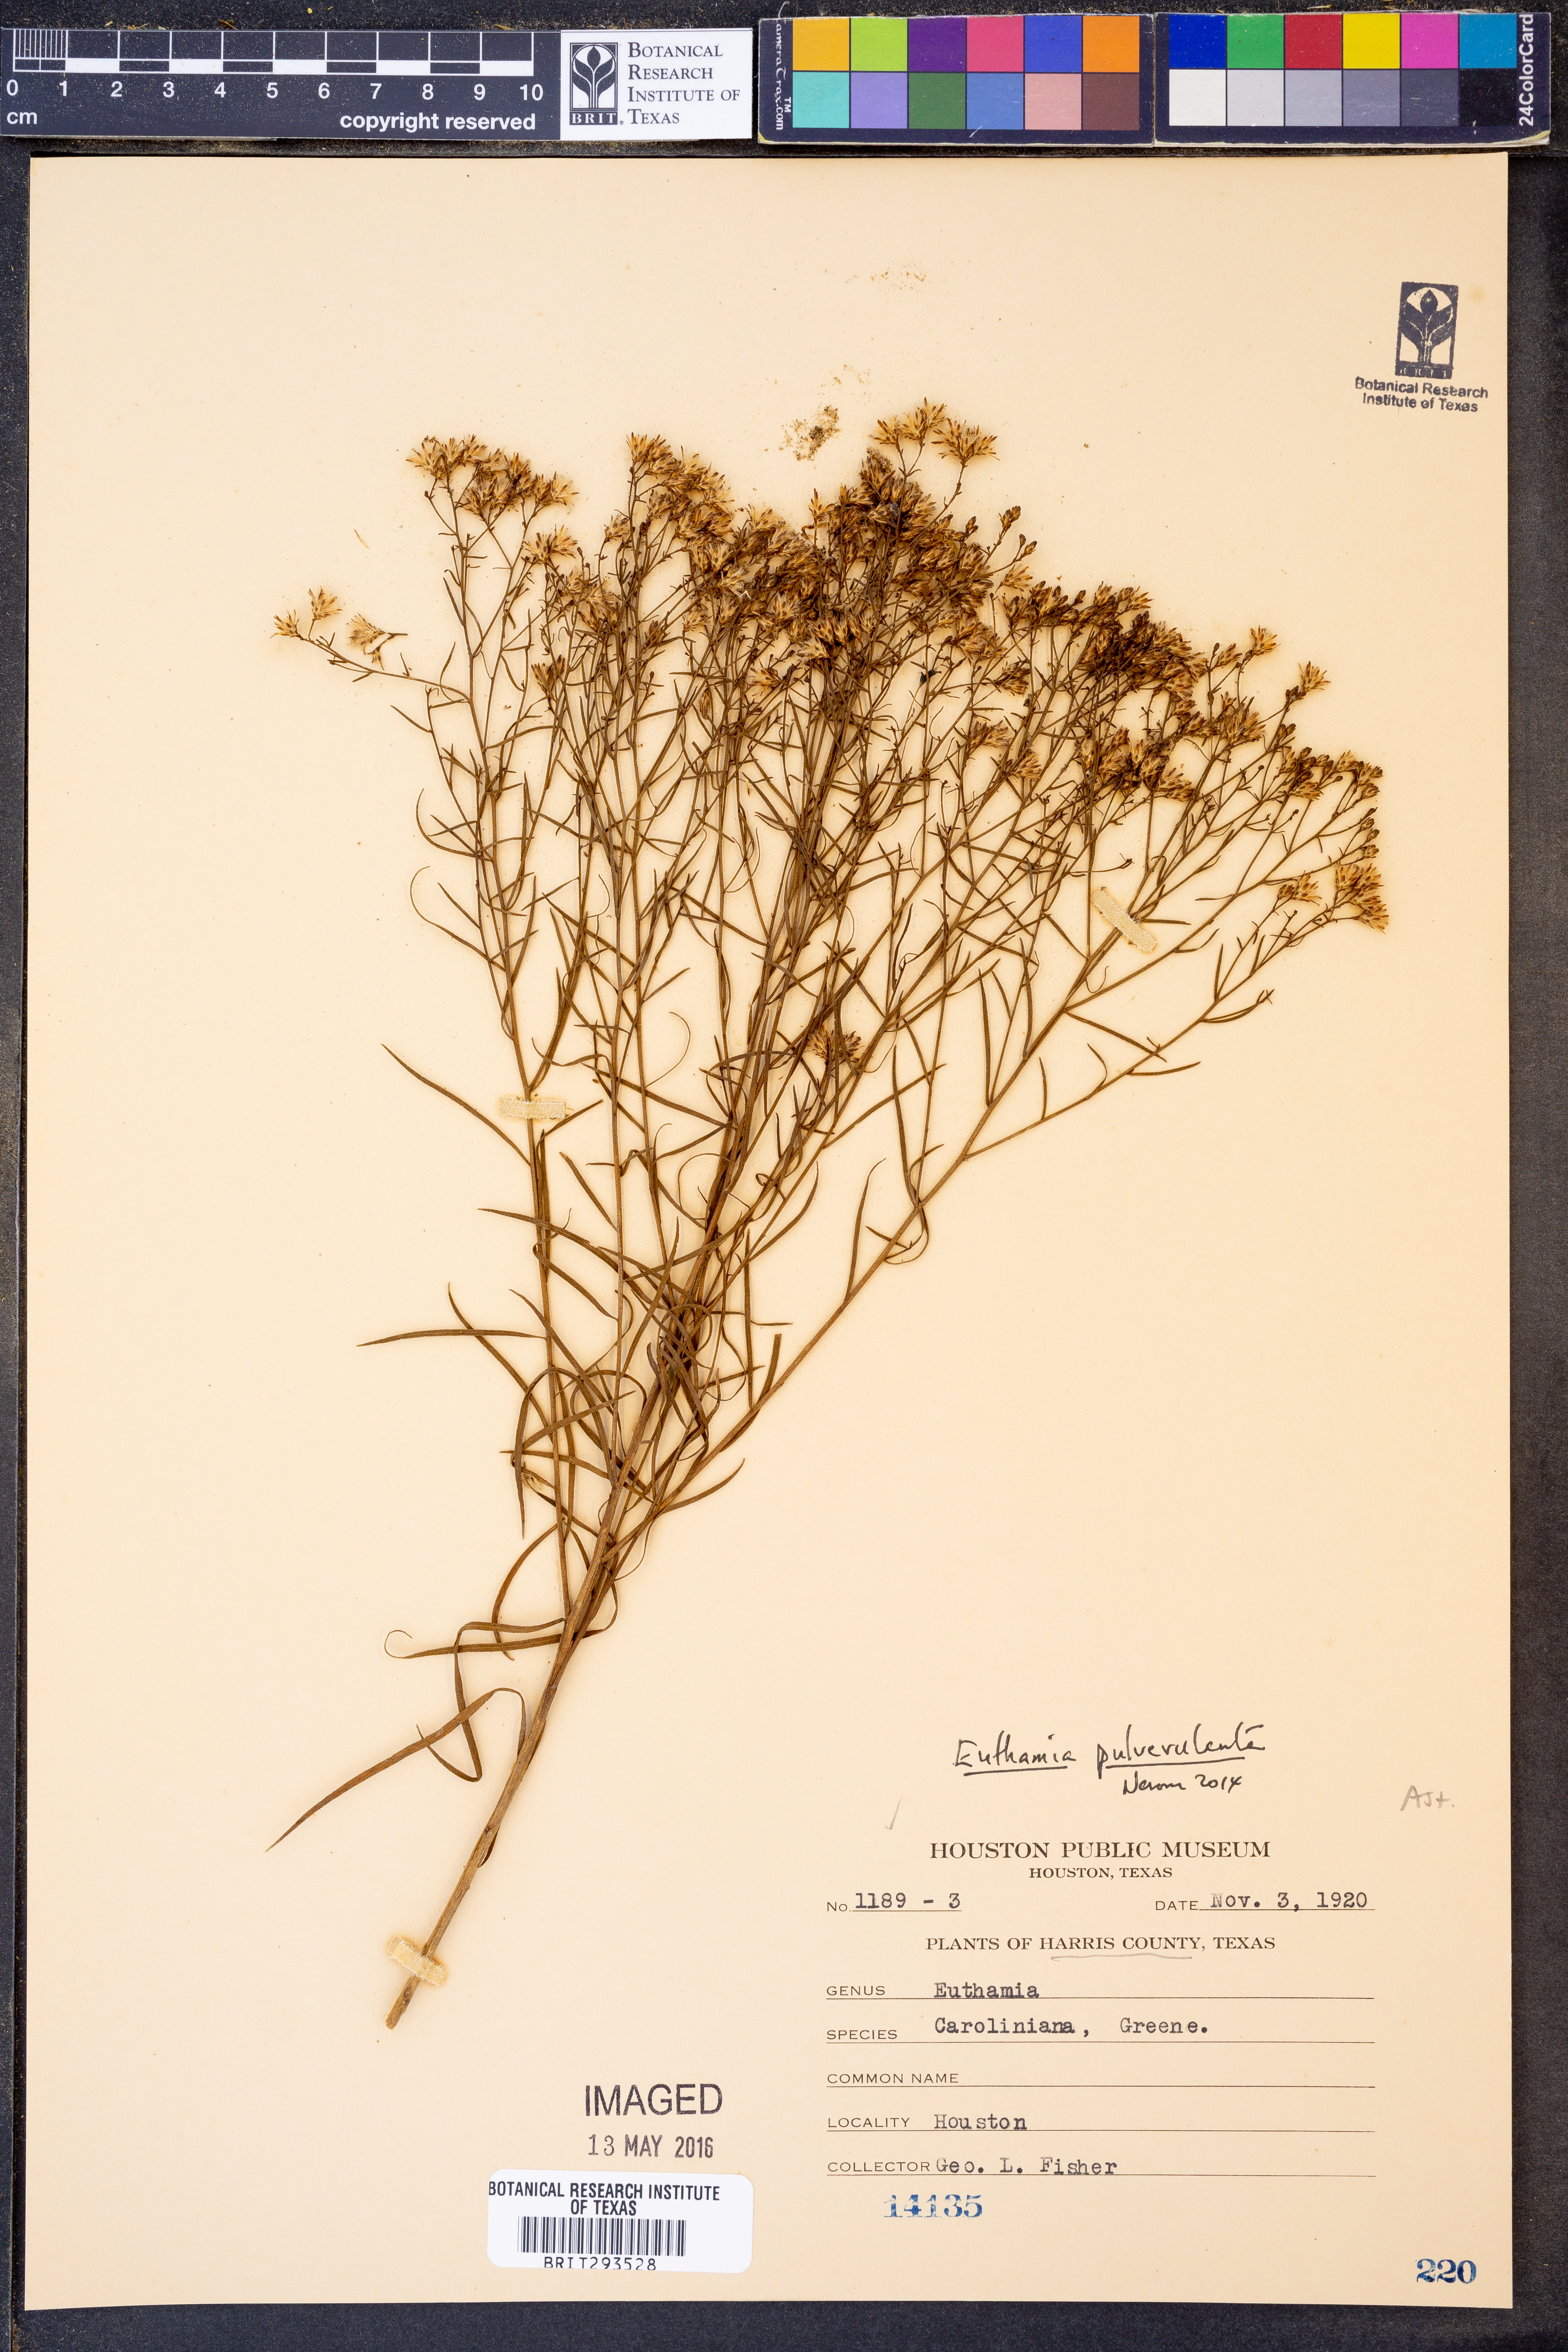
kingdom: Plantae
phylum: Tracheophyta
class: Magnoliopsida
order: Asterales
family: Asteraceae
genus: Euthamia
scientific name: Euthamia pulverulenta
